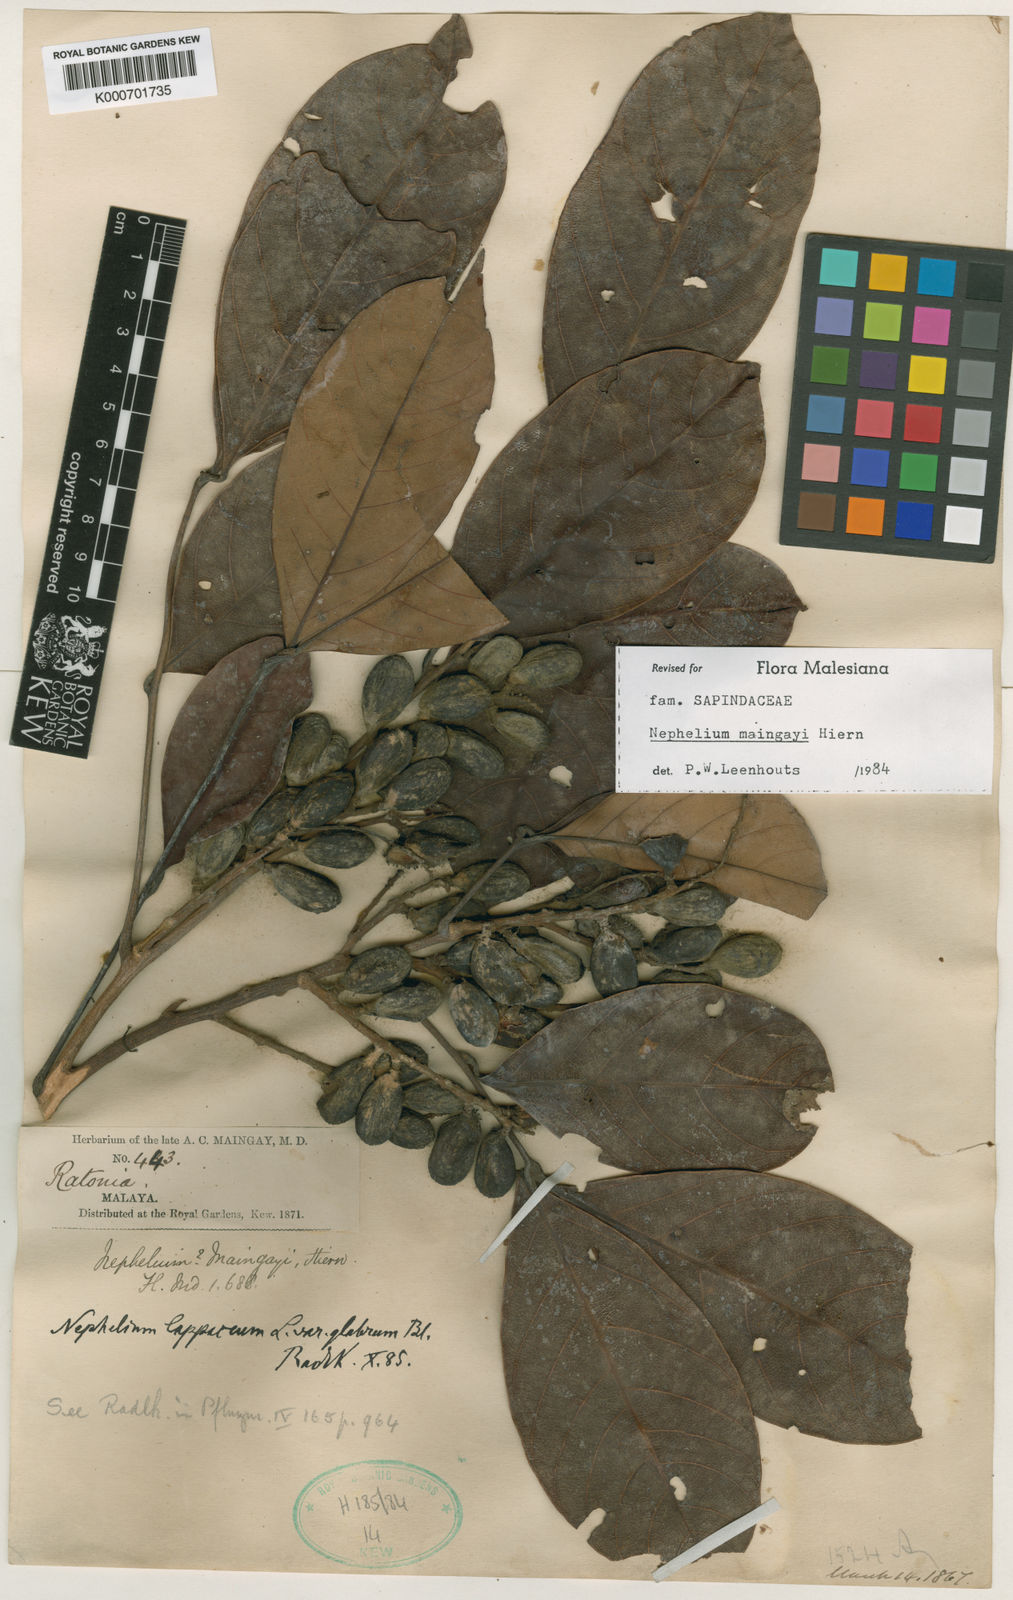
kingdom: Plantae
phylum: Tracheophyta
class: Magnoliopsida
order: Sapindales
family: Sapindaceae
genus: Nephelium
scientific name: Nephelium maingayi
